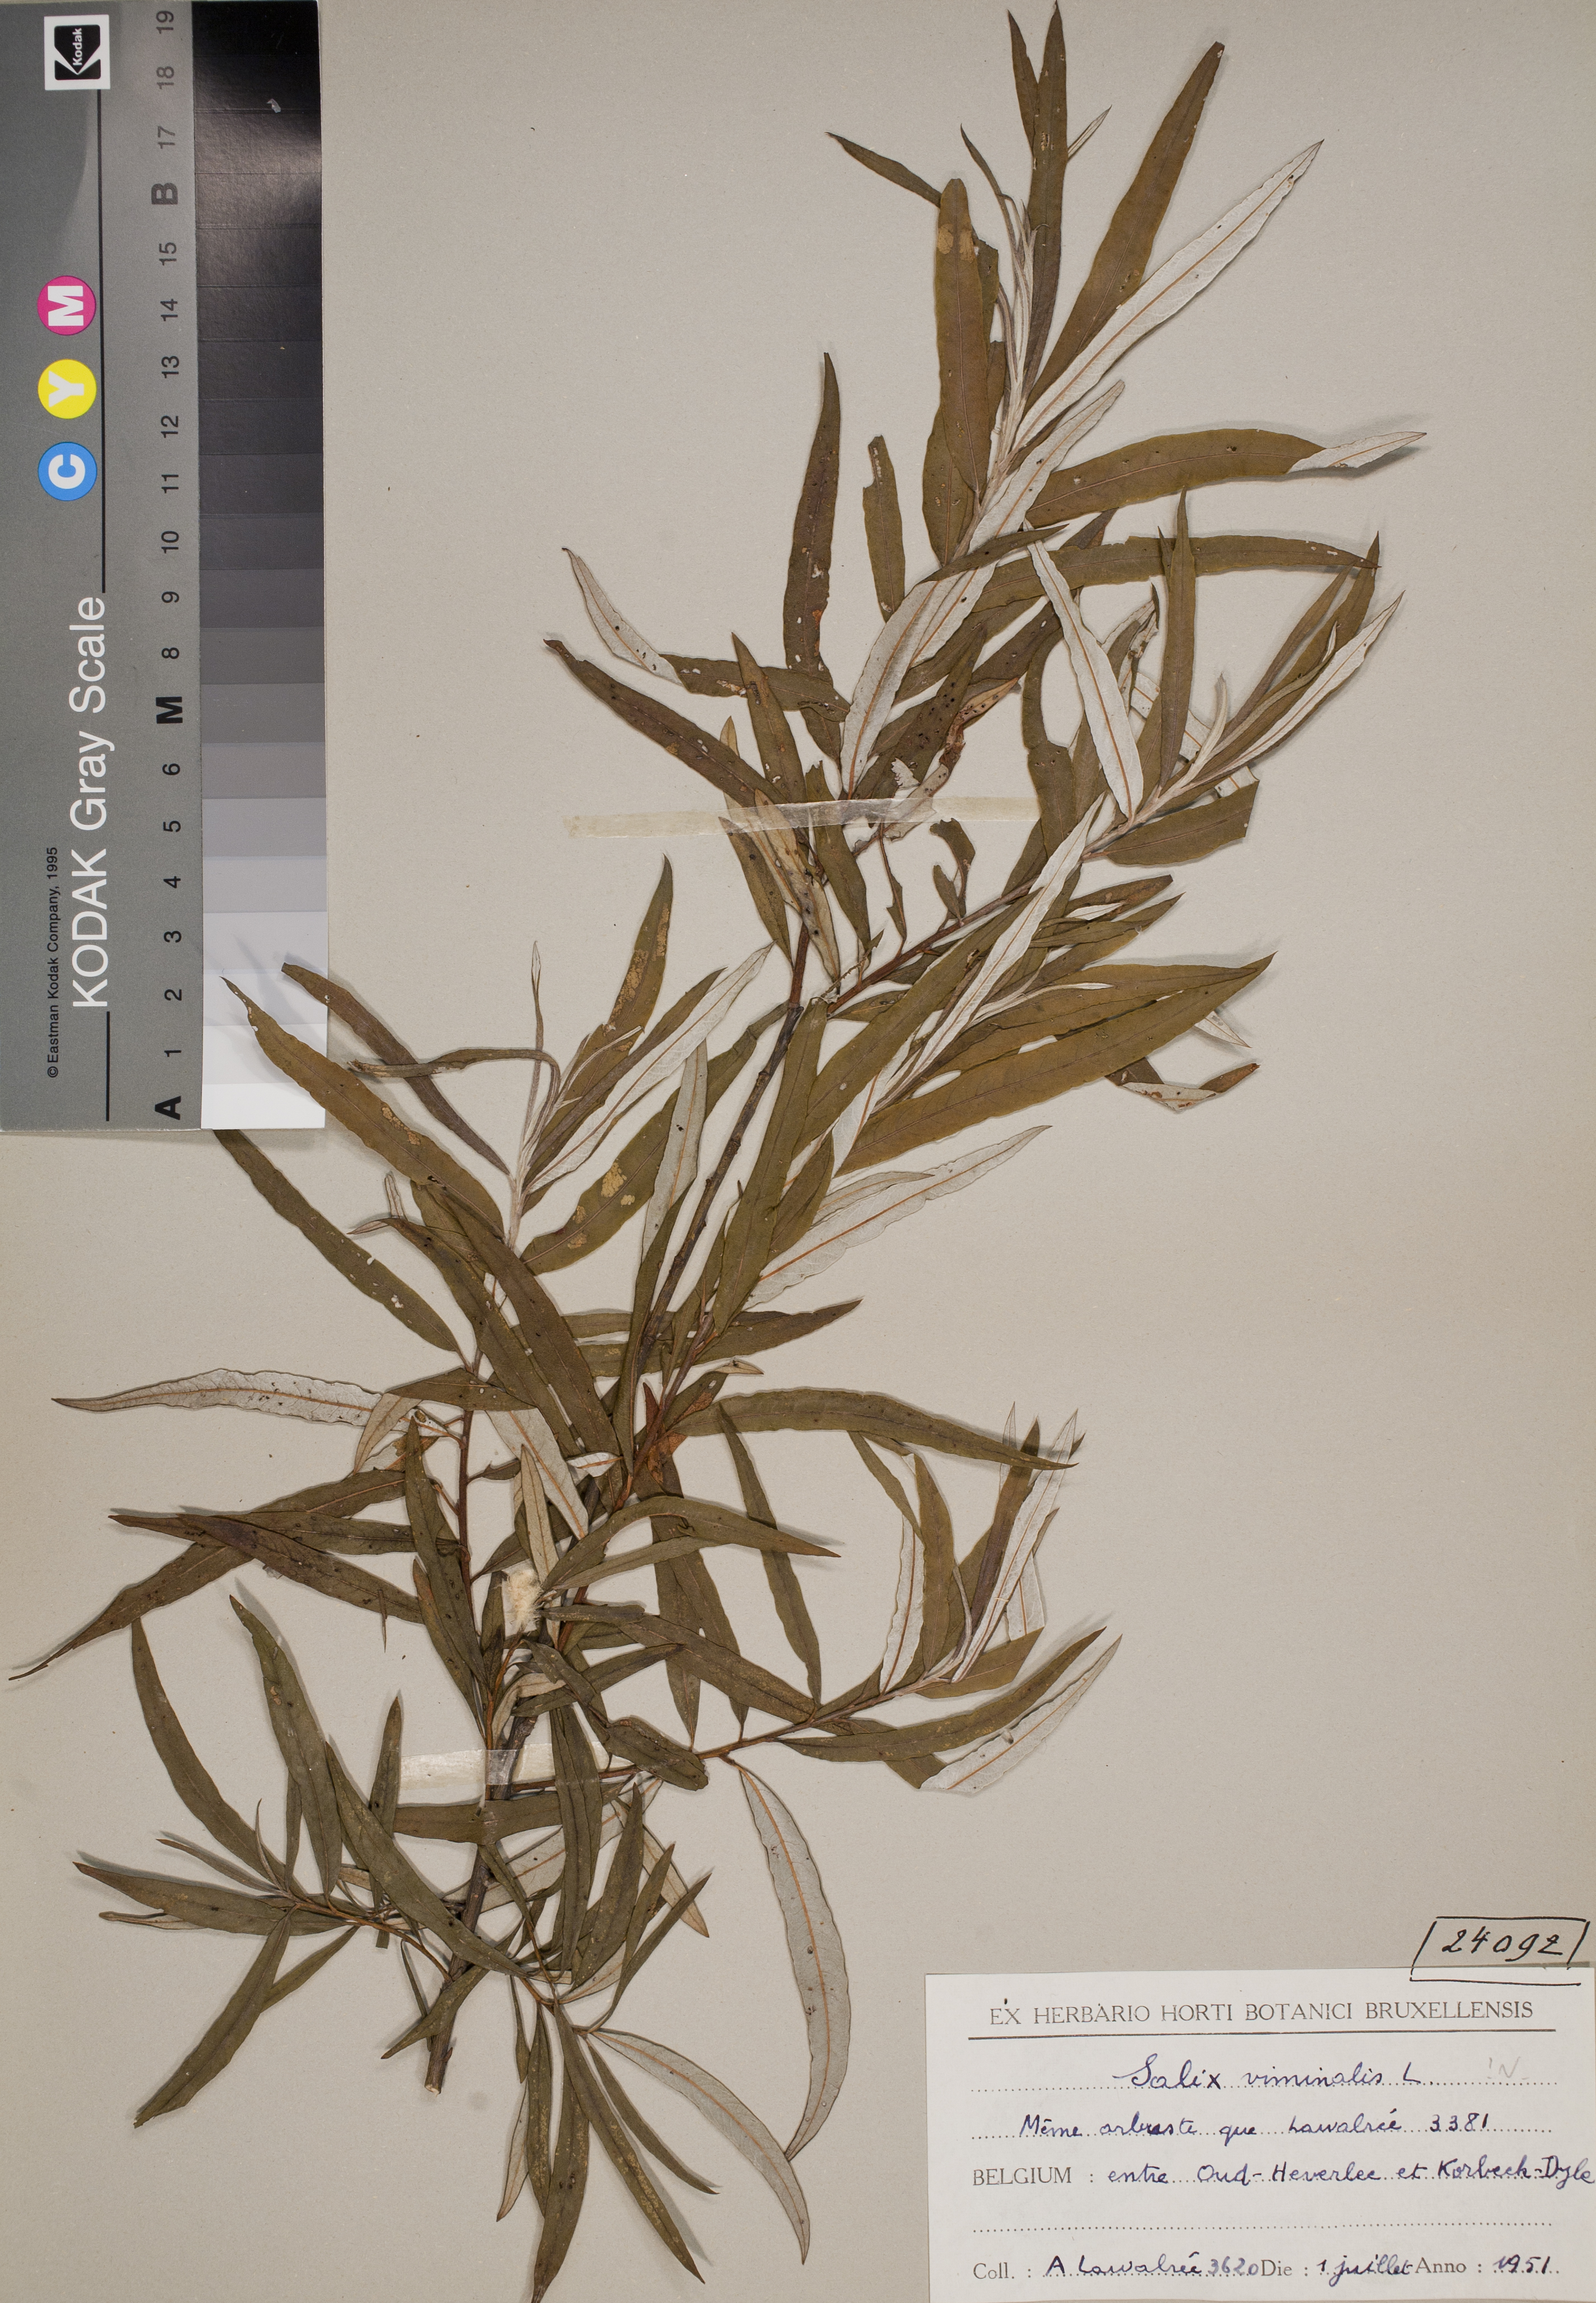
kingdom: Plantae
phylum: Tracheophyta
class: Magnoliopsida
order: Malpighiales
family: Salicaceae
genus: Salix
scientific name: Salix viminalis
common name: Osier
